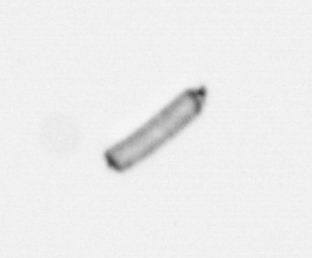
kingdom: Chromista
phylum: Ochrophyta
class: Bacillariophyceae
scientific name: Bacillariophyceae
